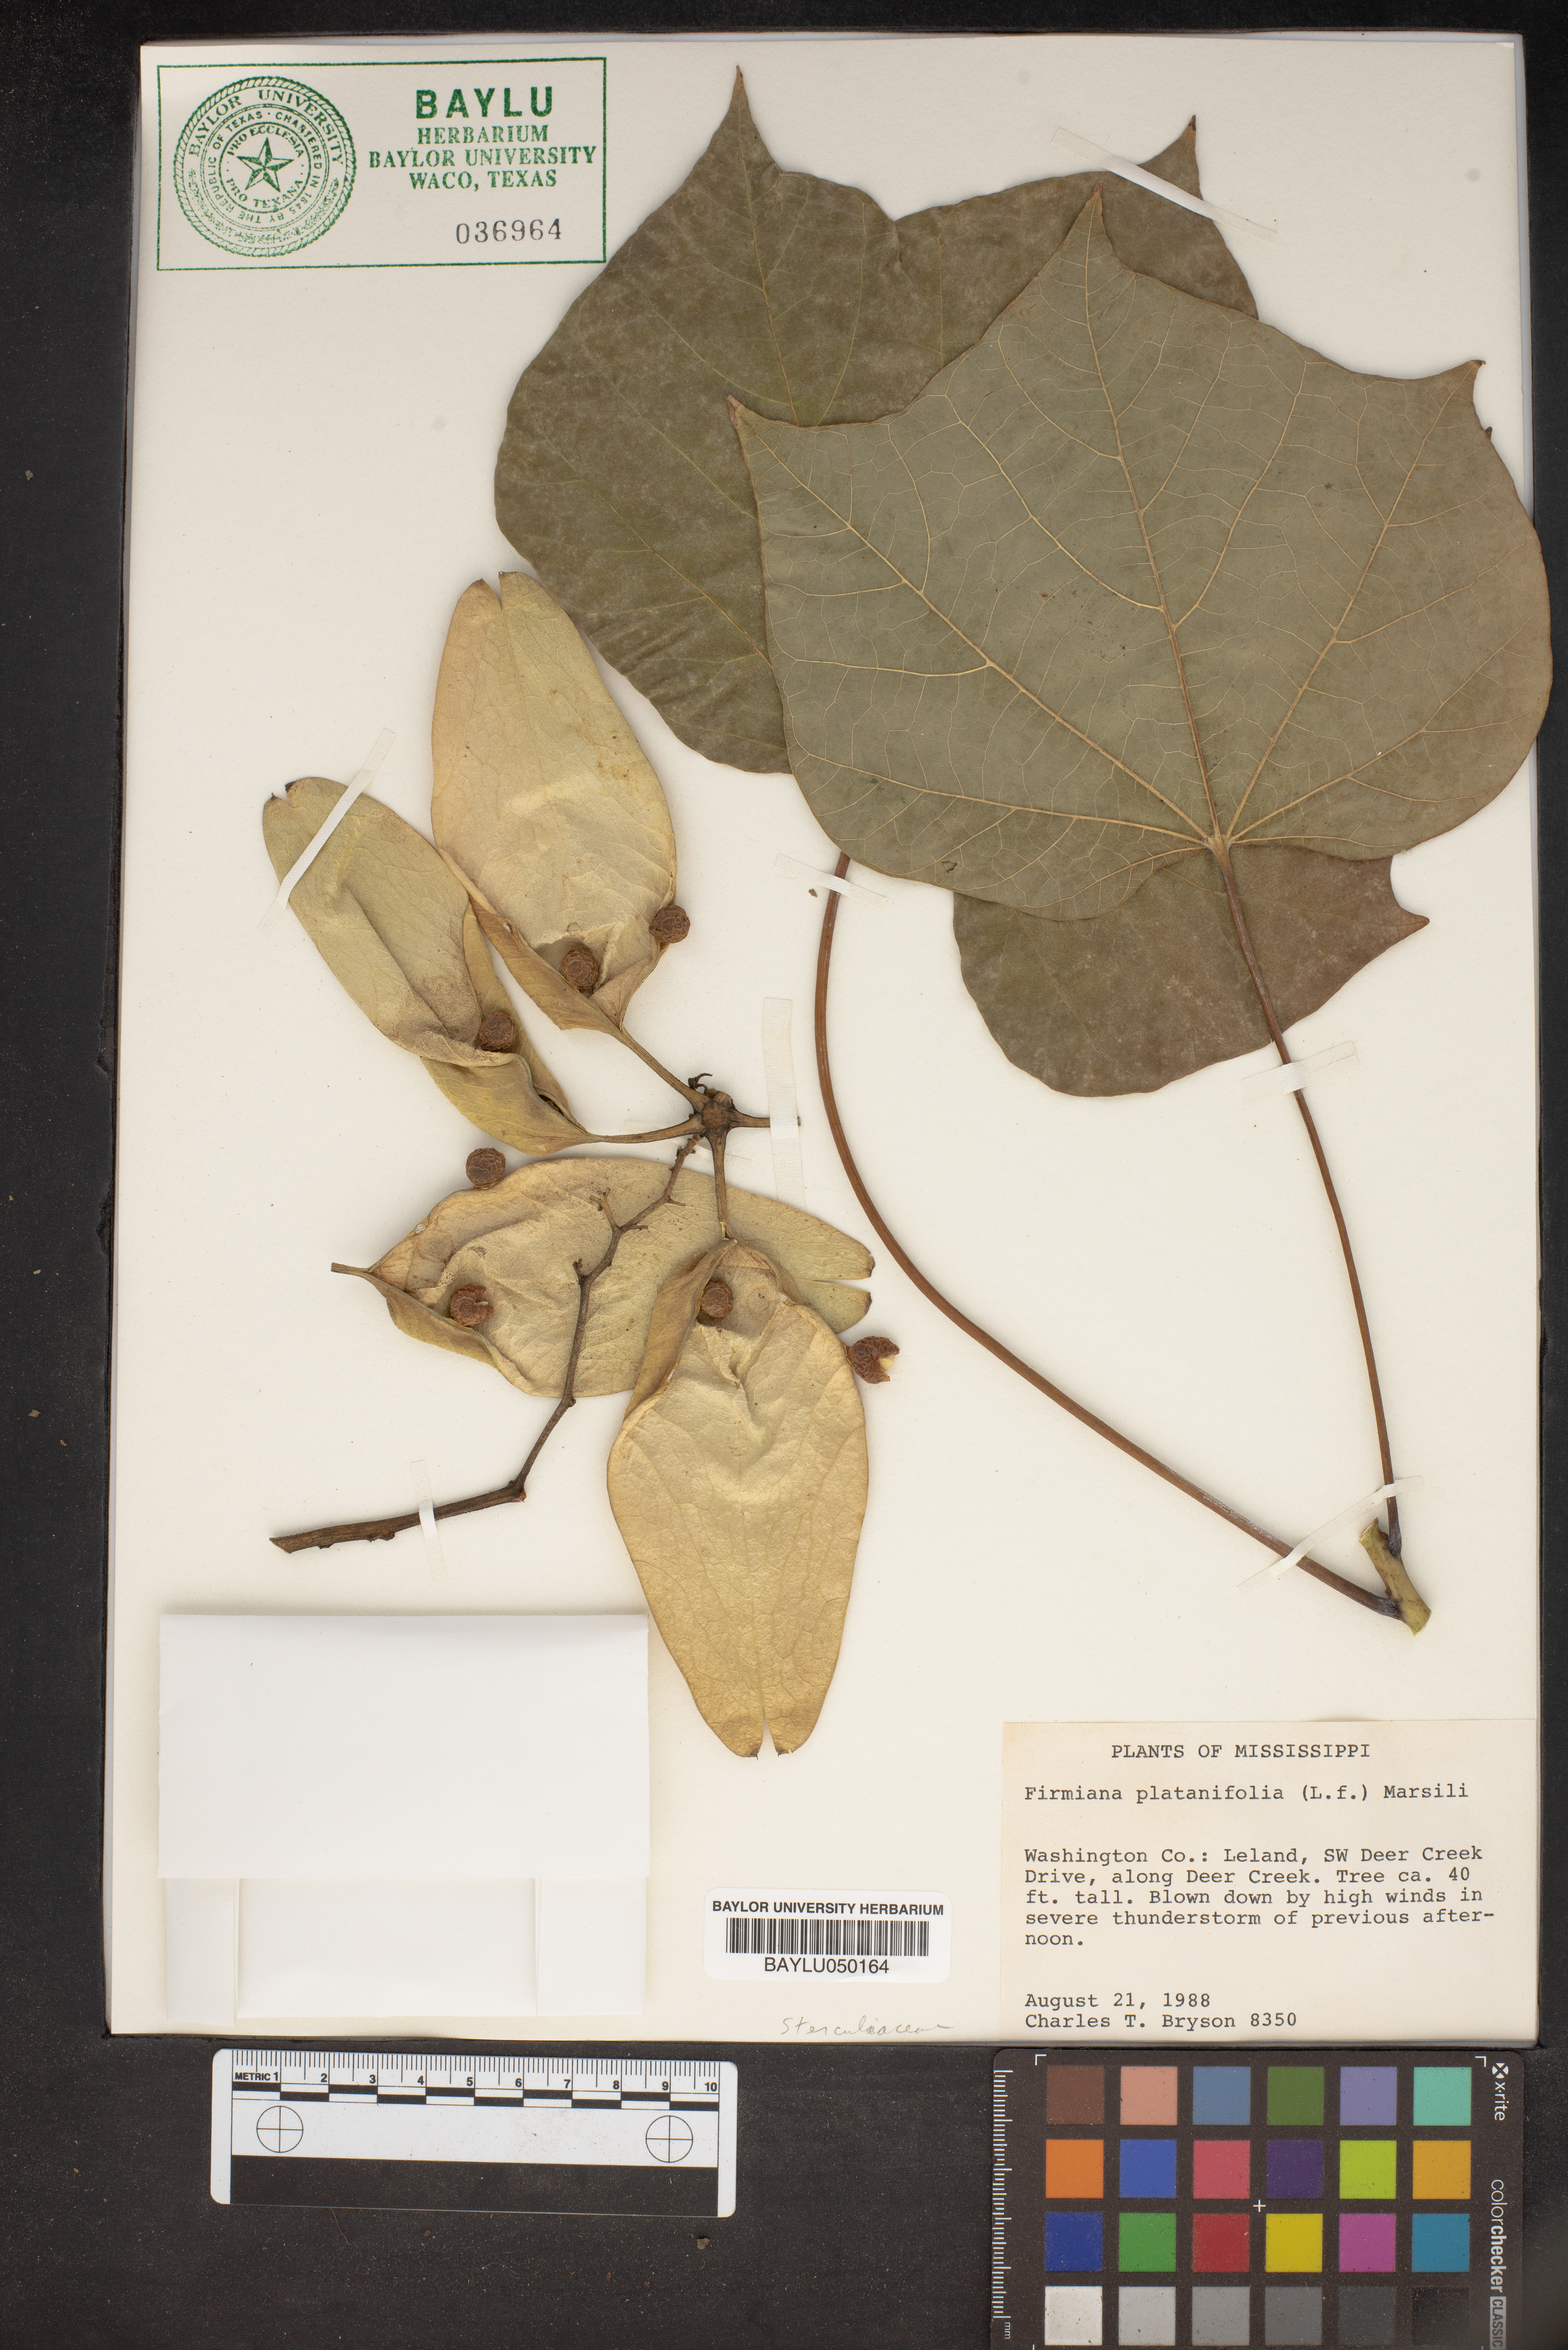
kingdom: Plantae
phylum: Tracheophyta
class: Magnoliopsida
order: Malvales
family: Malvaceae
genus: Firmiana
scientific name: Firmiana simplex
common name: Chinese parasoltree
